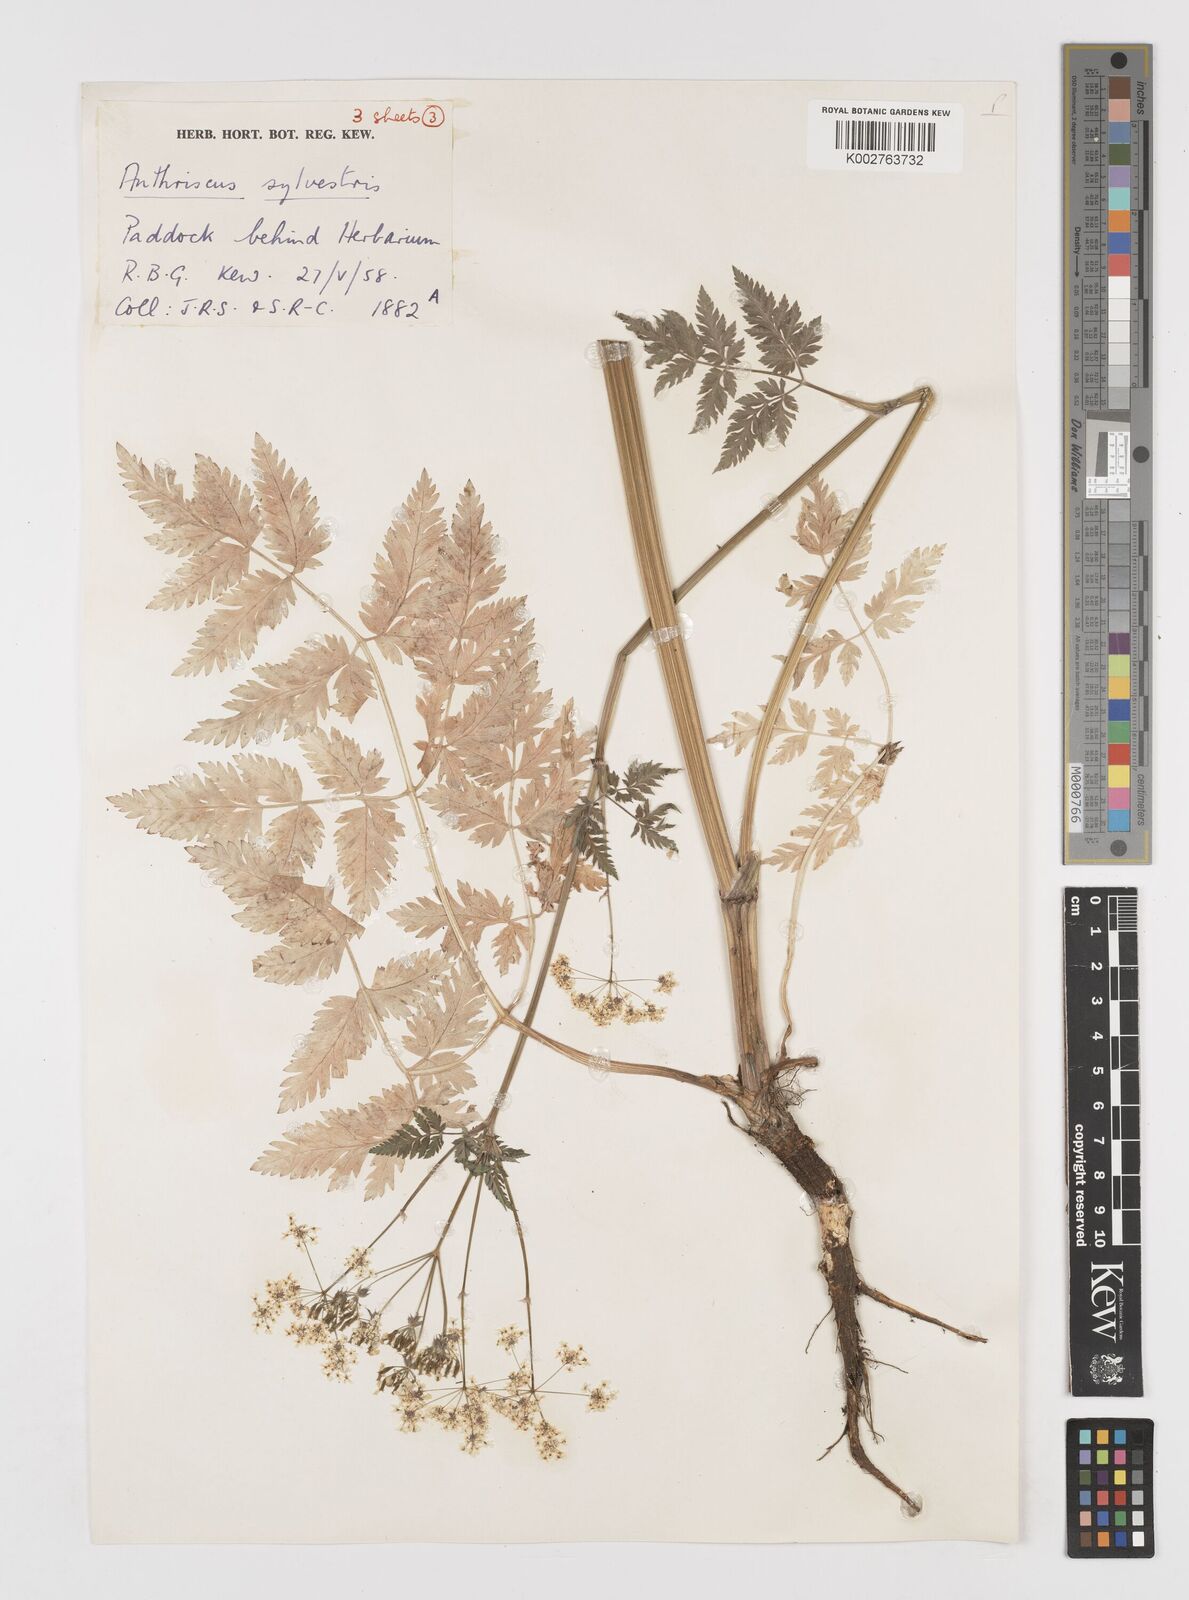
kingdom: Plantae
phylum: Tracheophyta
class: Magnoliopsida
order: Apiales
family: Apiaceae
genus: Anthriscus
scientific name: Anthriscus sylvestris
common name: Cow parsley
